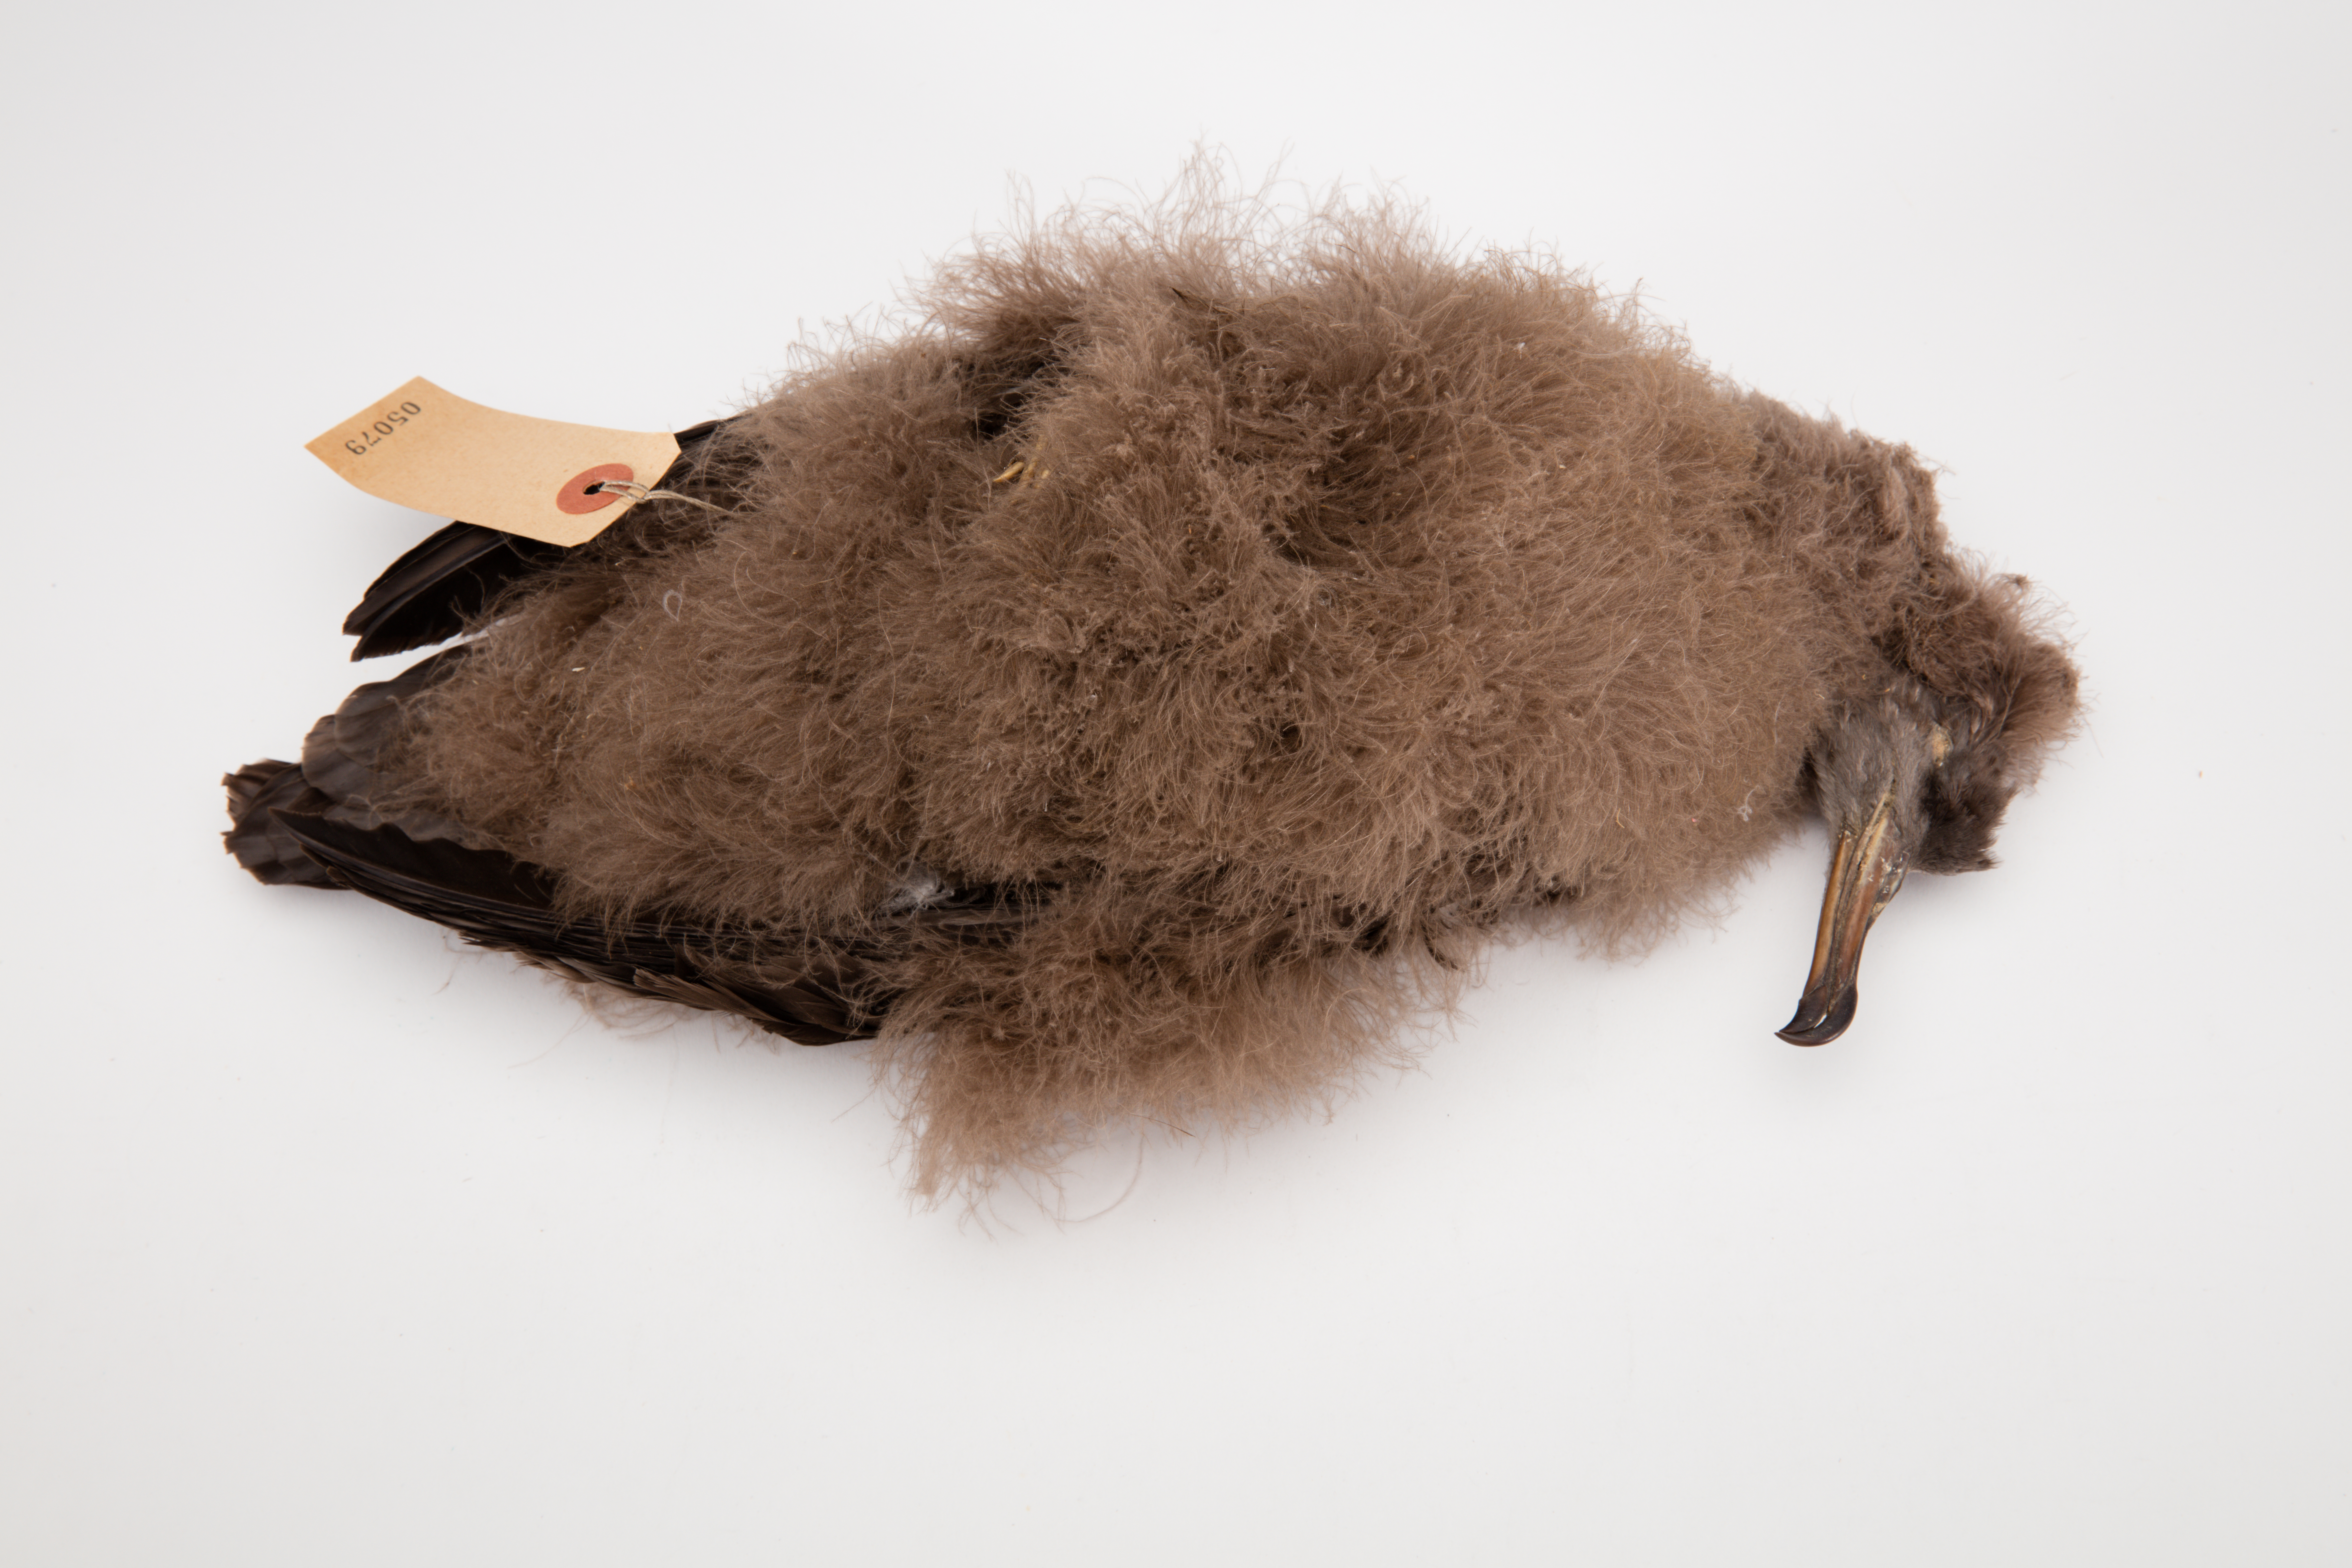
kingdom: Animalia
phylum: Chordata
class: Aves
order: Procellariiformes
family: Procellariidae
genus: Puffinus
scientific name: Puffinus pacificus
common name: Wedge-tailed shearwater
